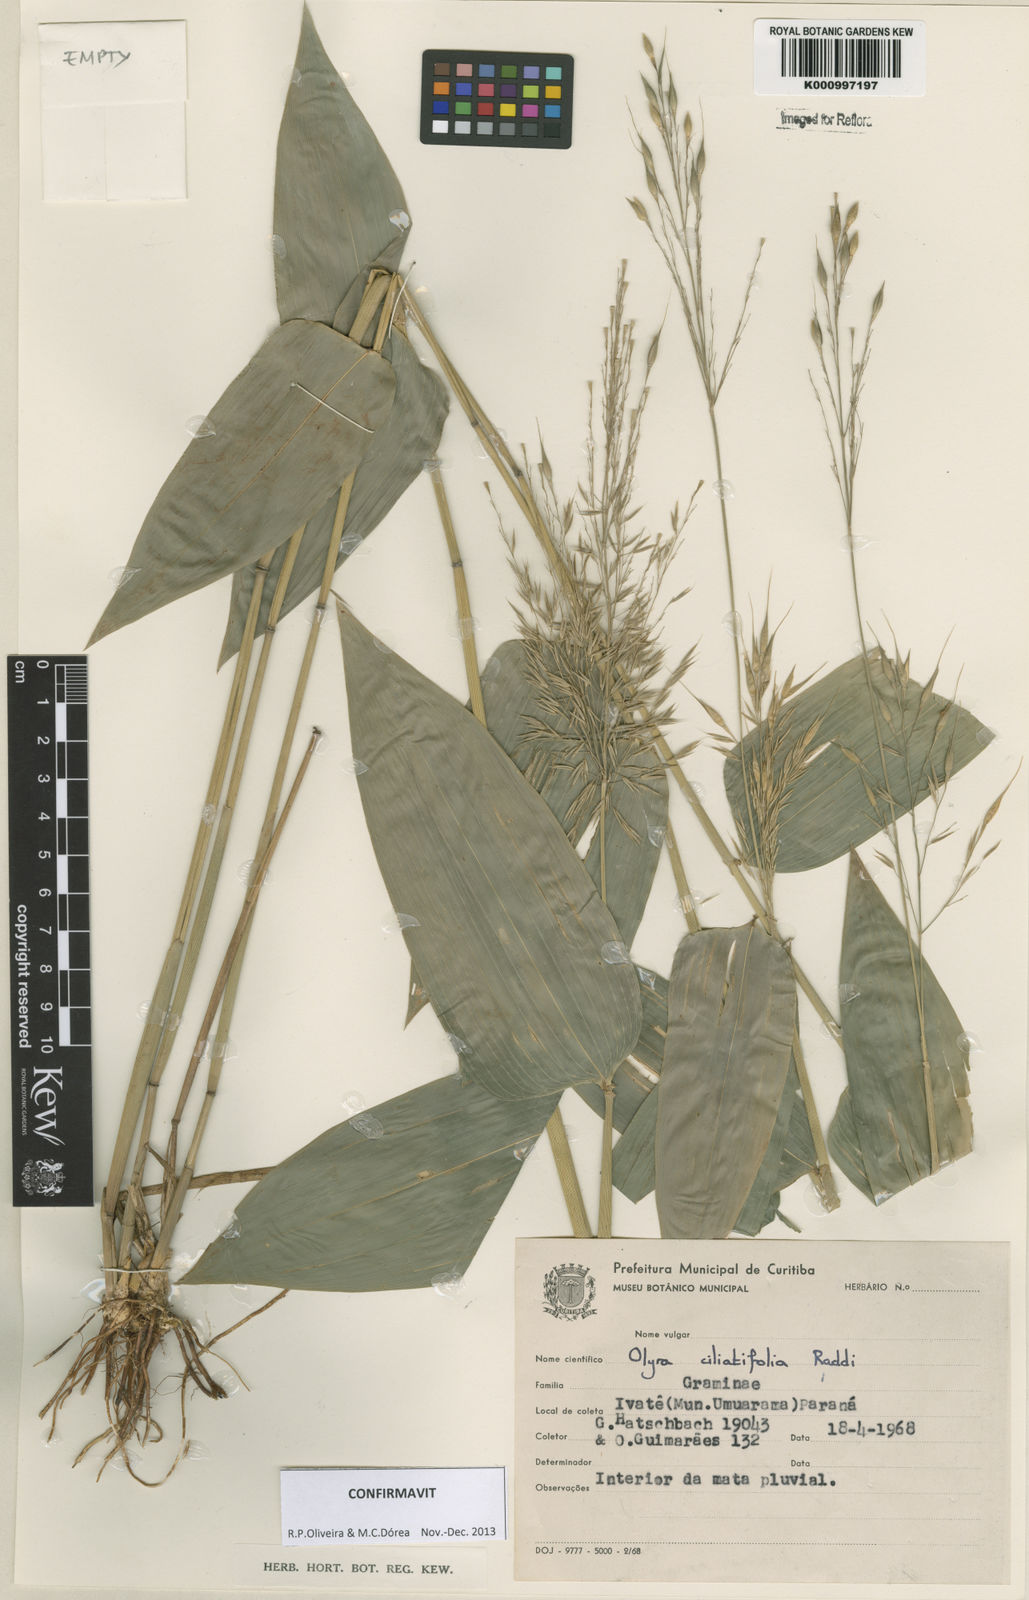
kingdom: Plantae
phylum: Tracheophyta
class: Liliopsida
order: Poales
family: Poaceae
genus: Olyra
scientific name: Olyra ciliatifolia
